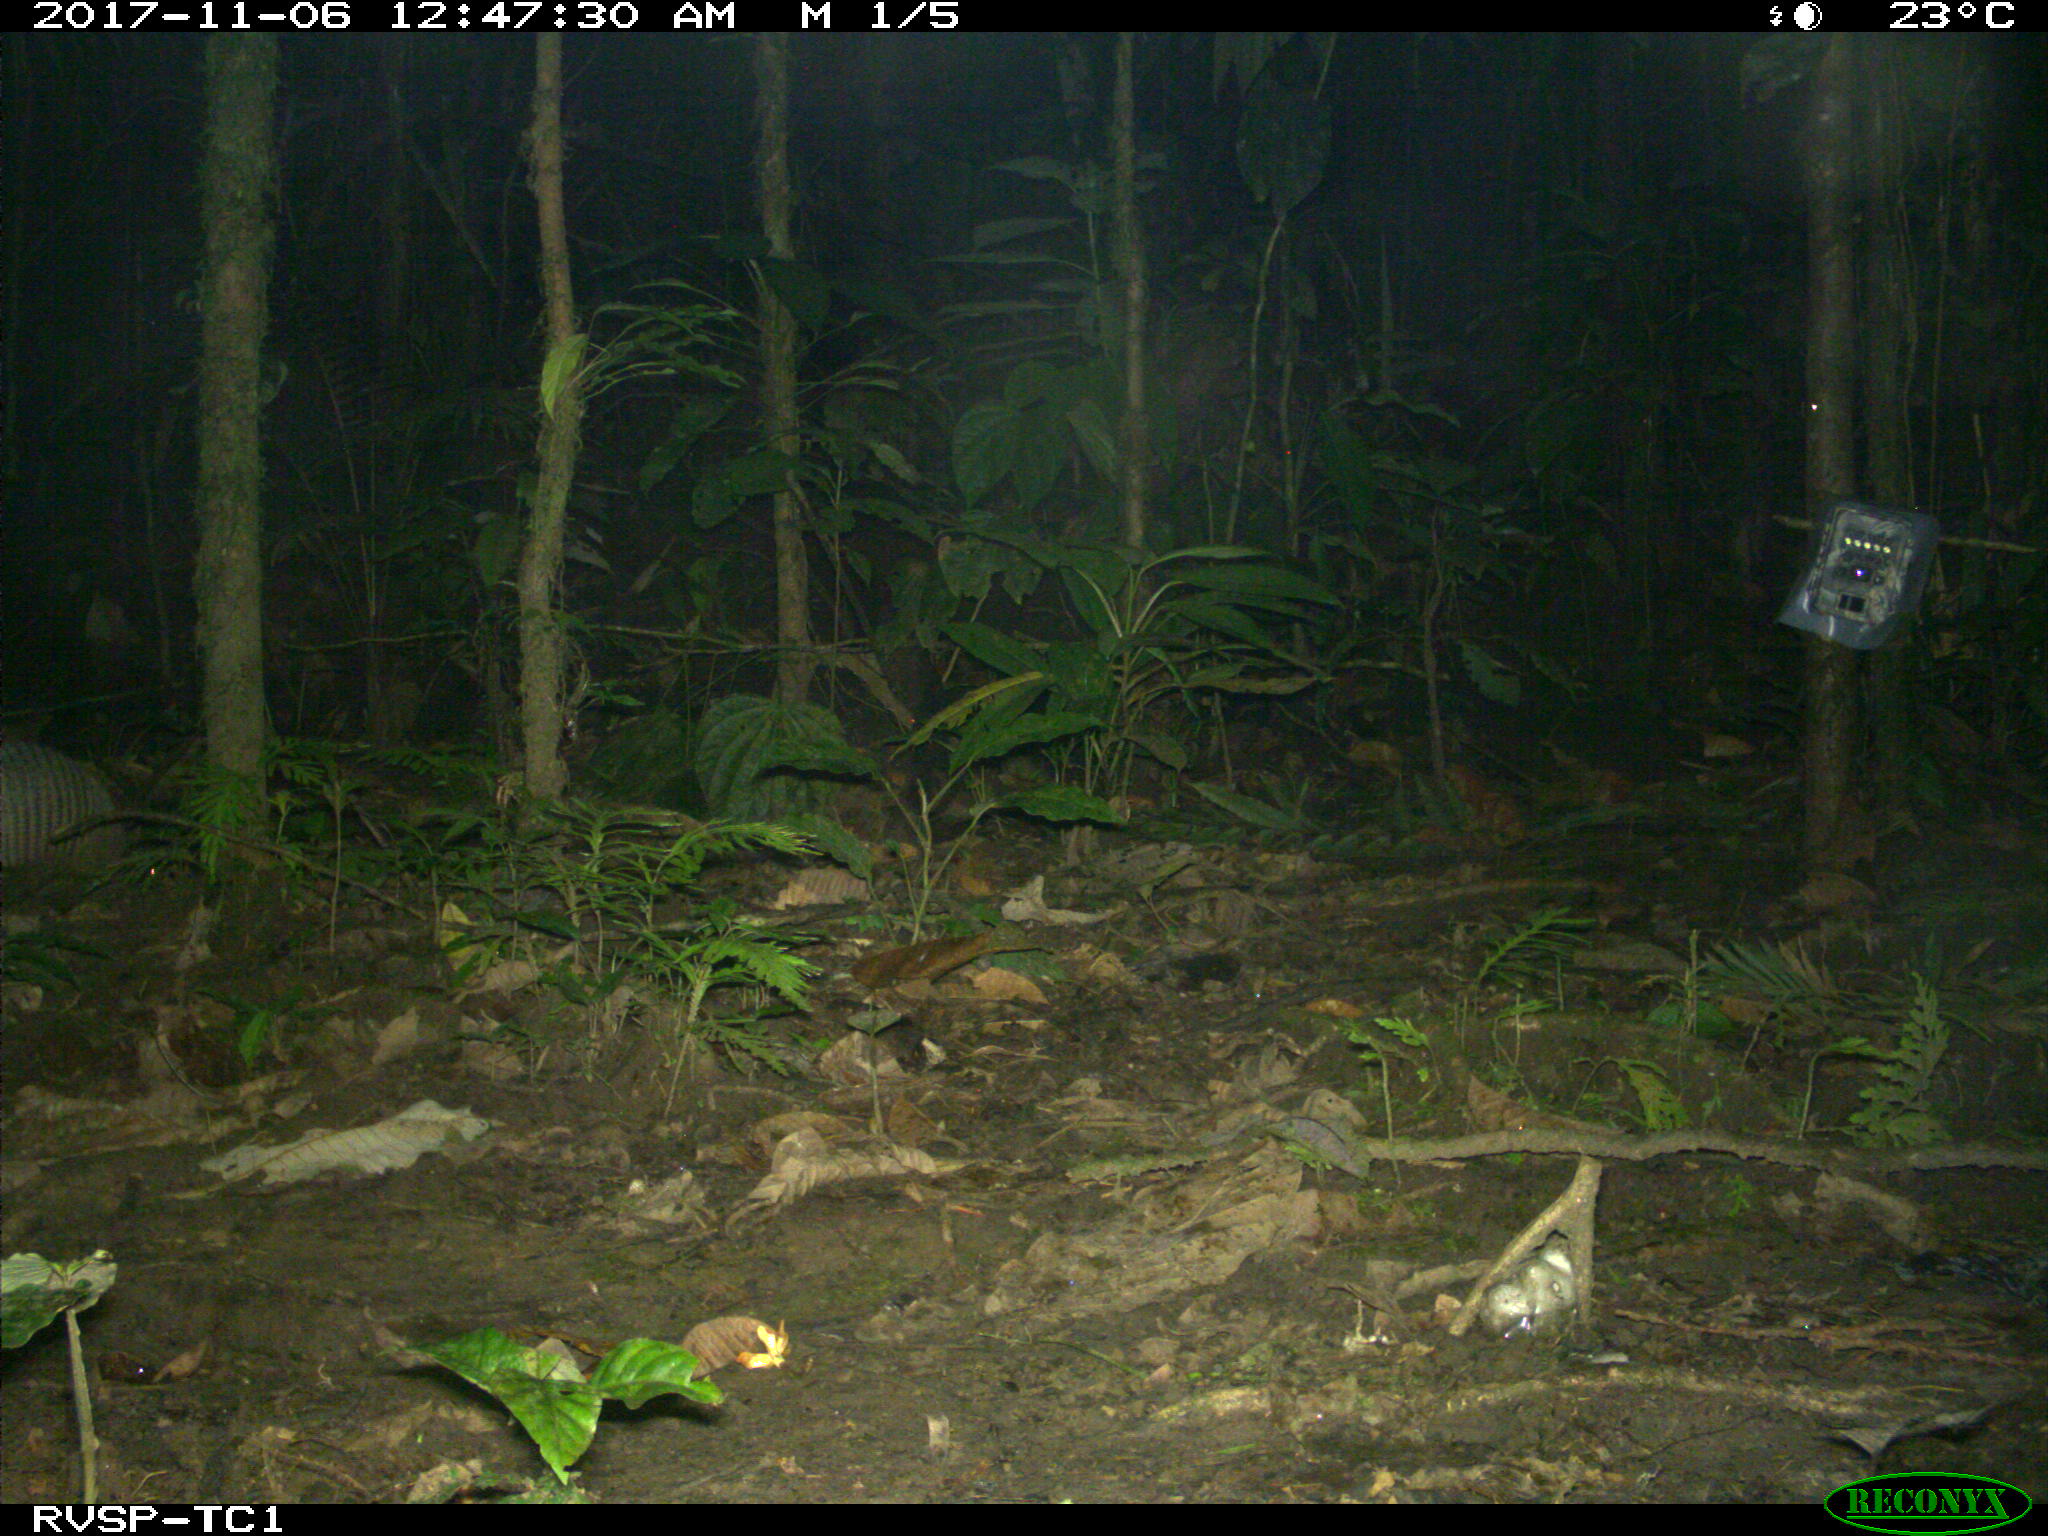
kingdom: Animalia
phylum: Chordata
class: Mammalia
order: Cingulata
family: Dasypodidae
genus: Dasypus
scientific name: Dasypus novemcinctus
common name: Nine-banded armadillo
